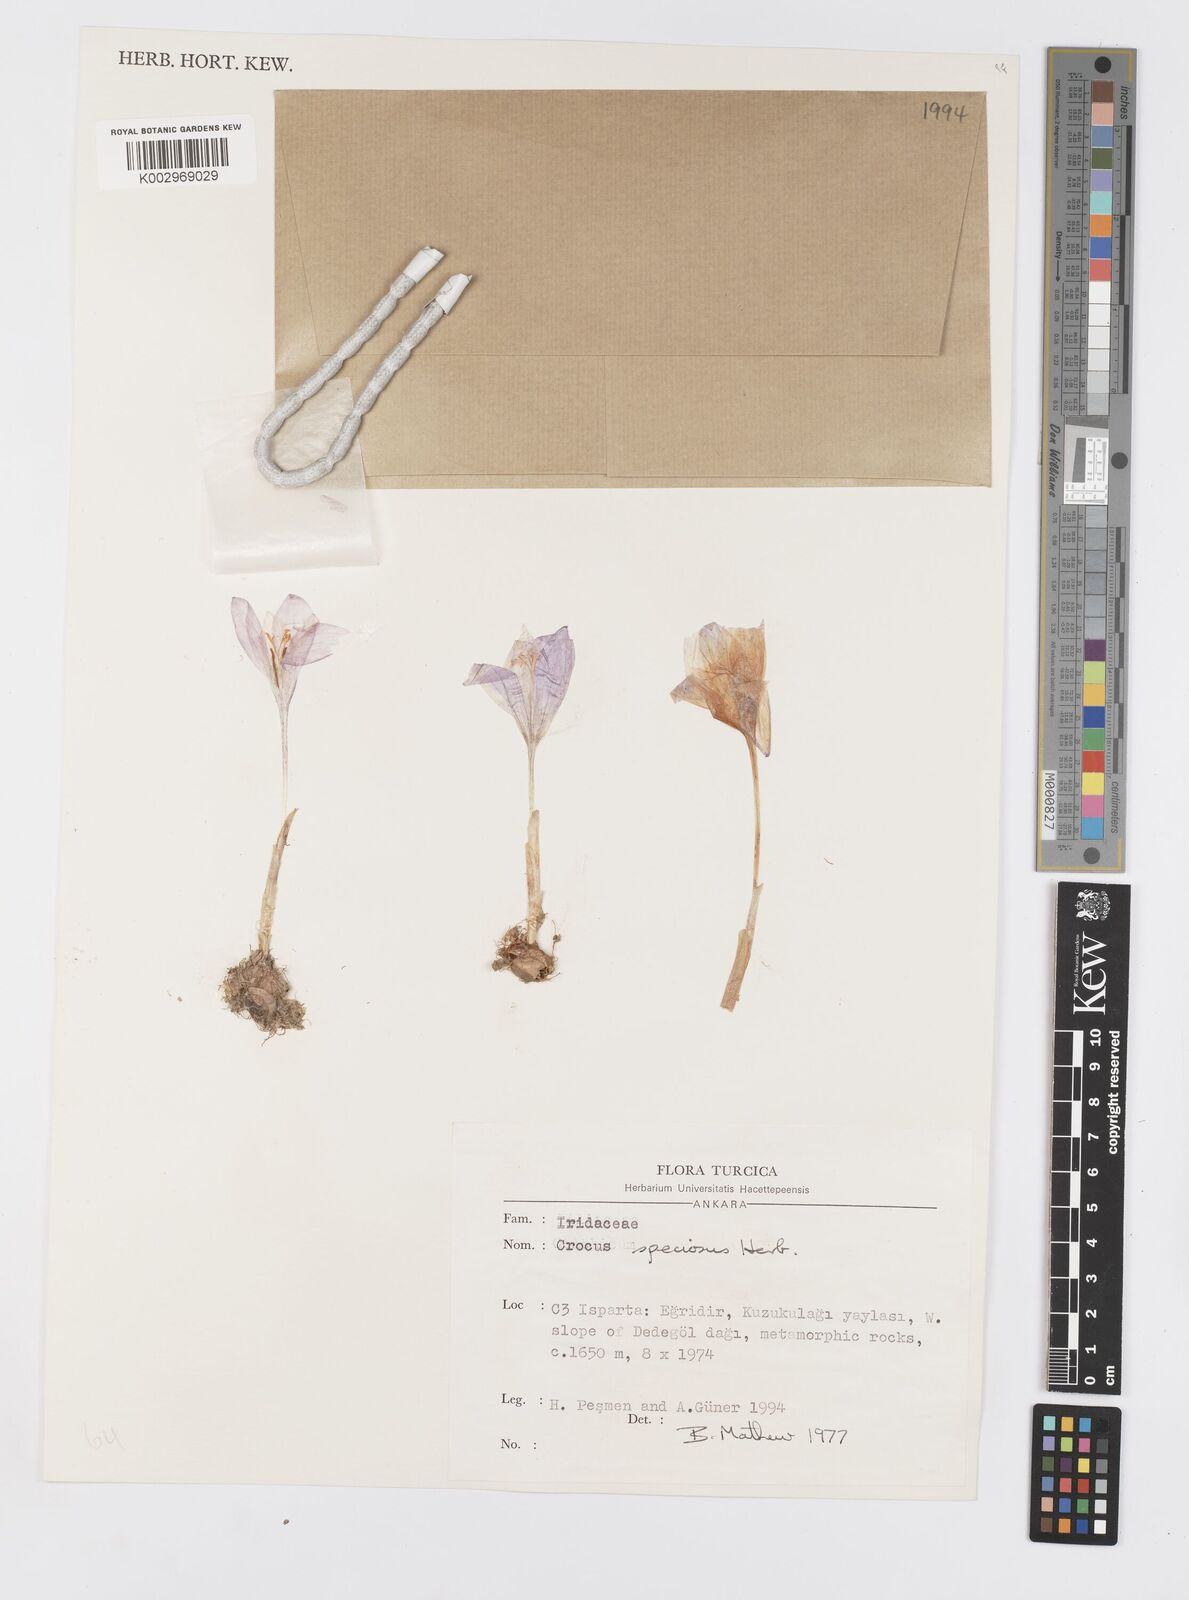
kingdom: Plantae
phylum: Tracheophyta
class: Liliopsida
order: Asparagales
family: Iridaceae
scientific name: Iridaceae
